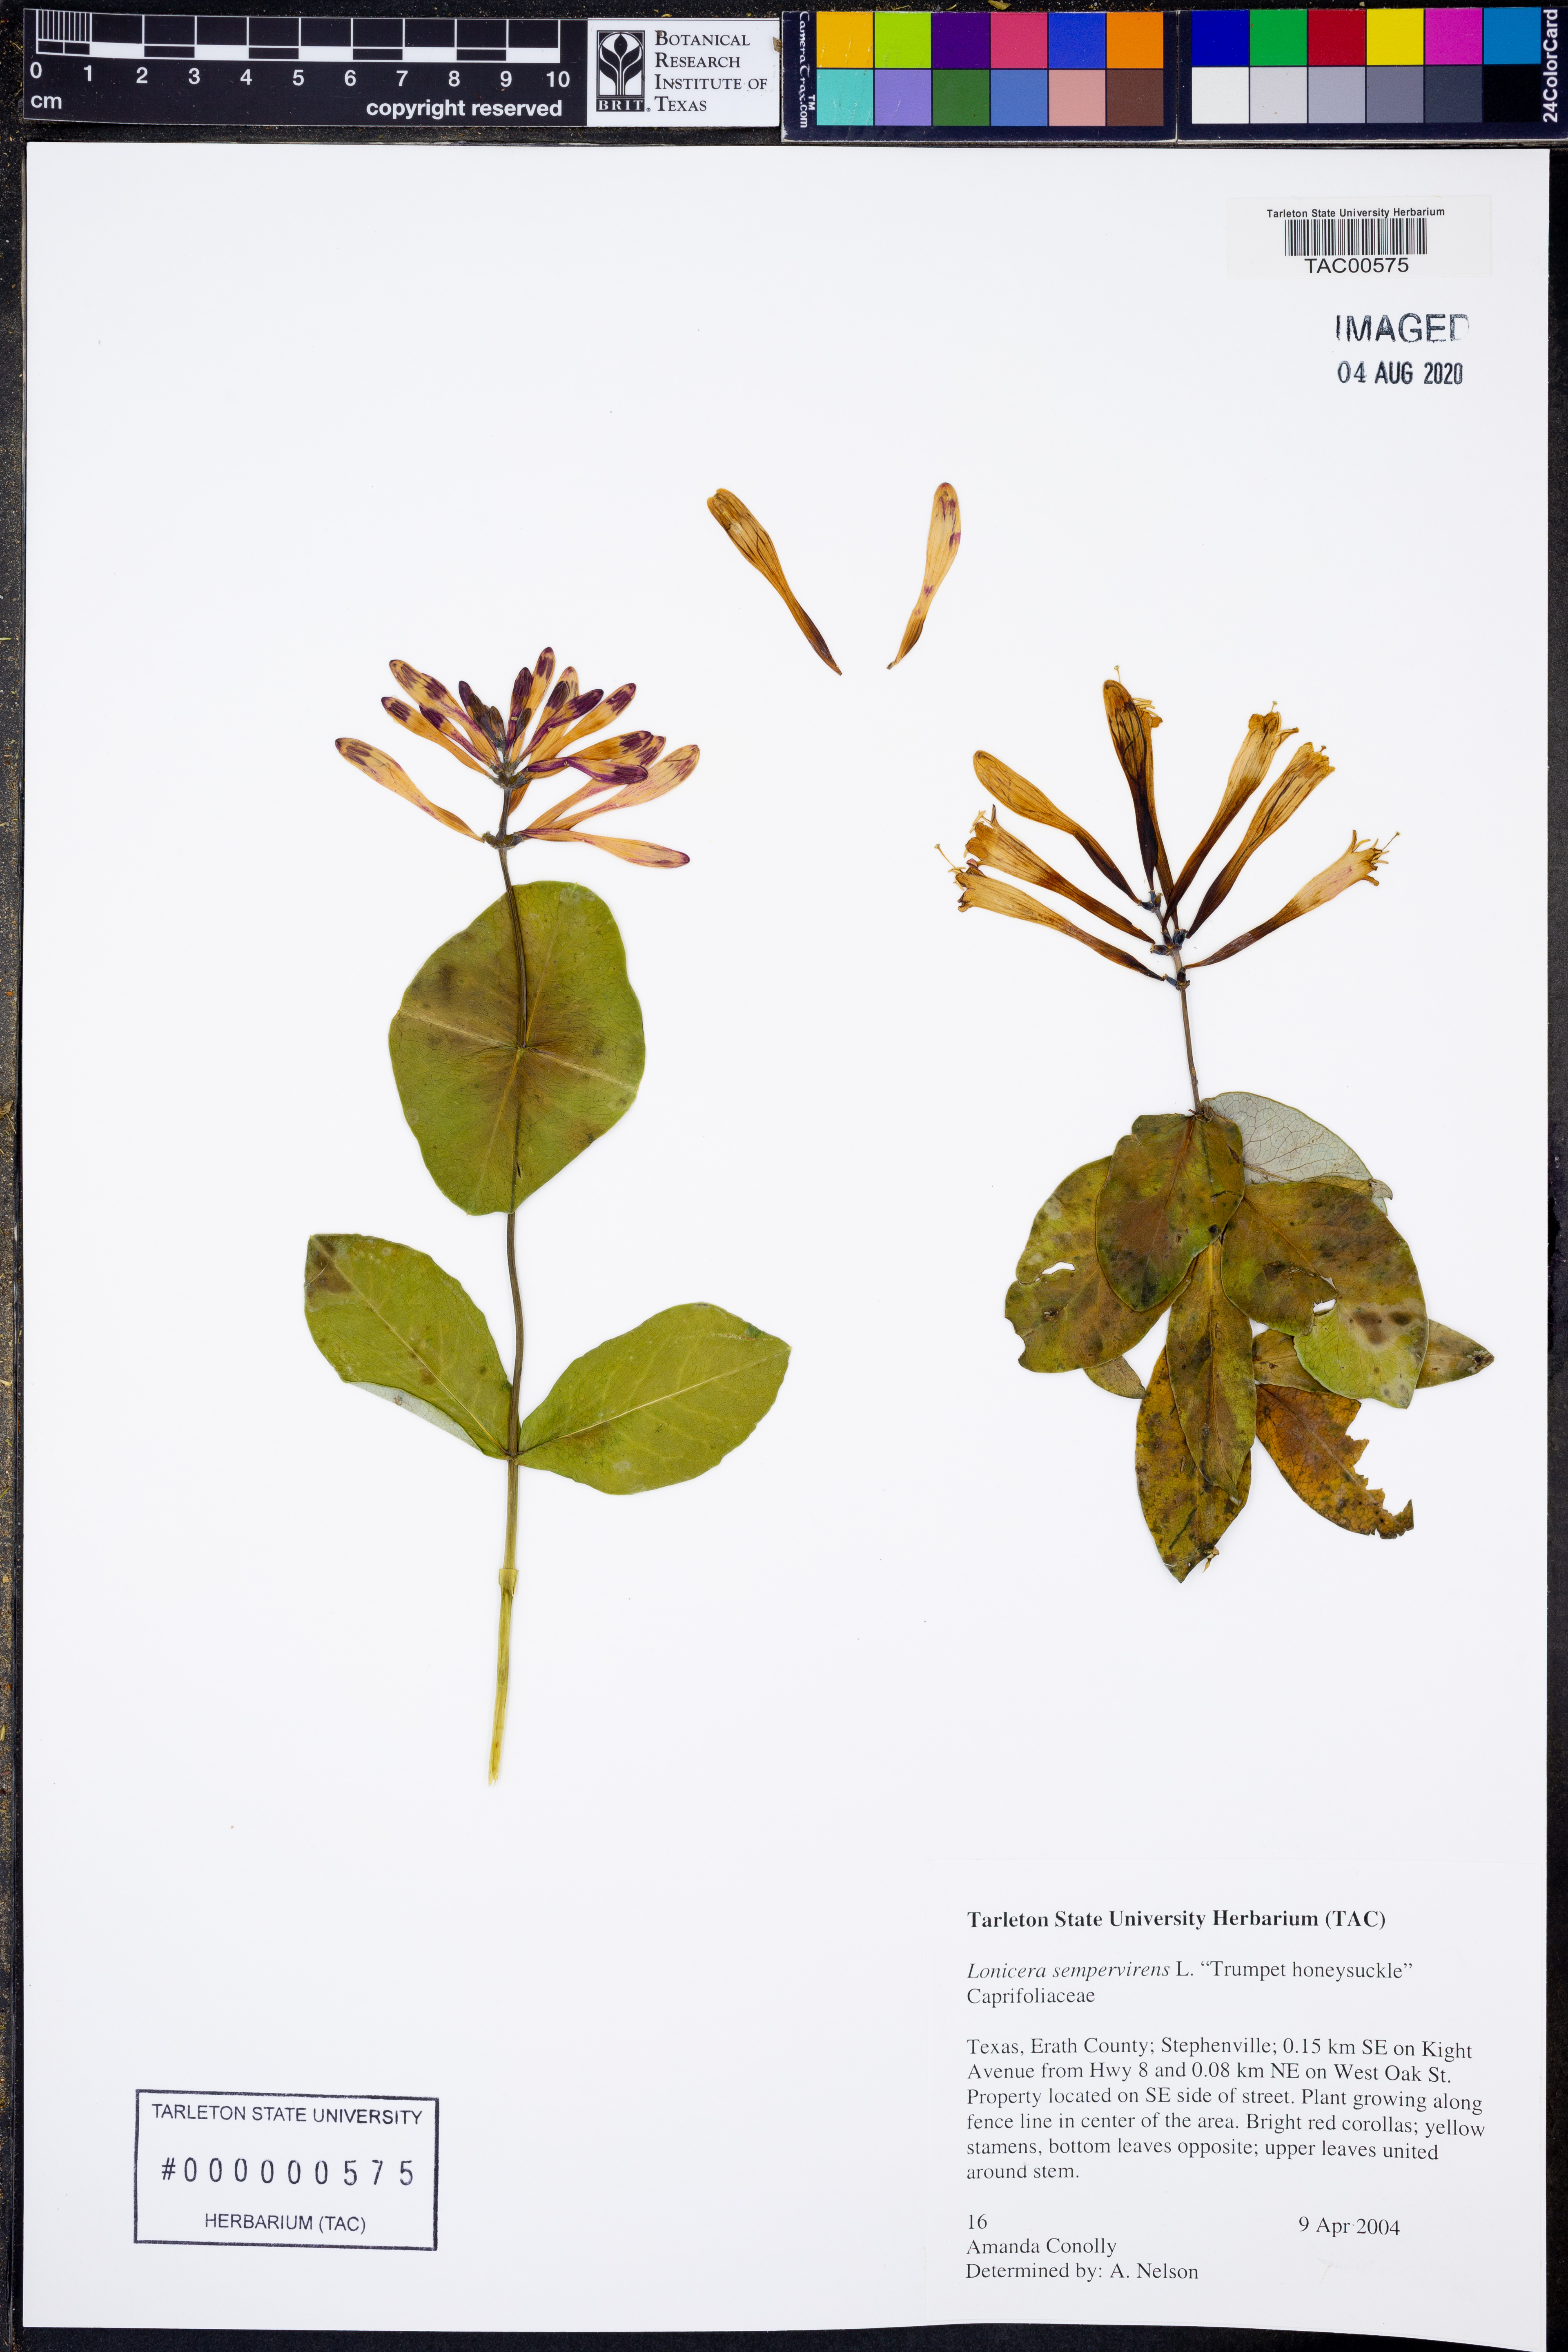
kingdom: Plantae
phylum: Tracheophyta
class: Magnoliopsida
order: Dipsacales
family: Caprifoliaceae
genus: Lonicera
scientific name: Lonicera sempervirens
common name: Coral honeysuckle
